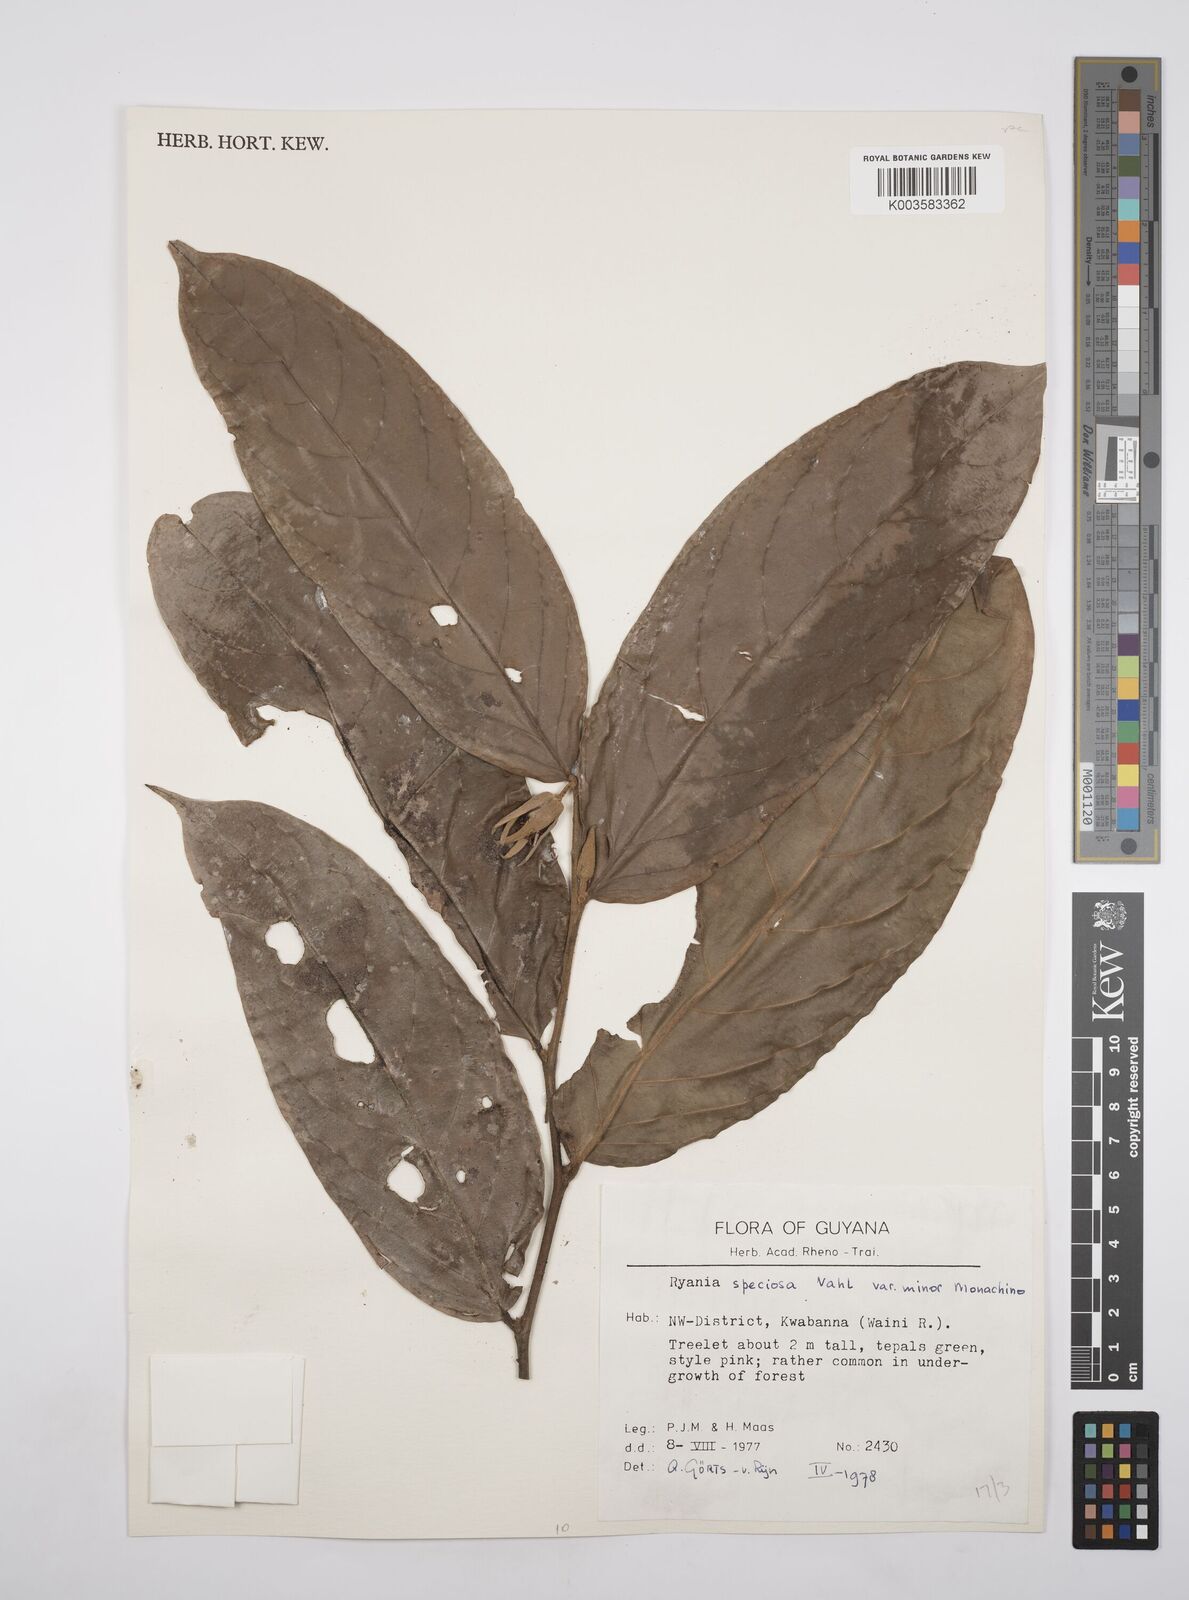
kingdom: Plantae
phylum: Tracheophyta
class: Magnoliopsida
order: Malpighiales
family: Salicaceae
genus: Ryania
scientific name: Ryania speciosa
